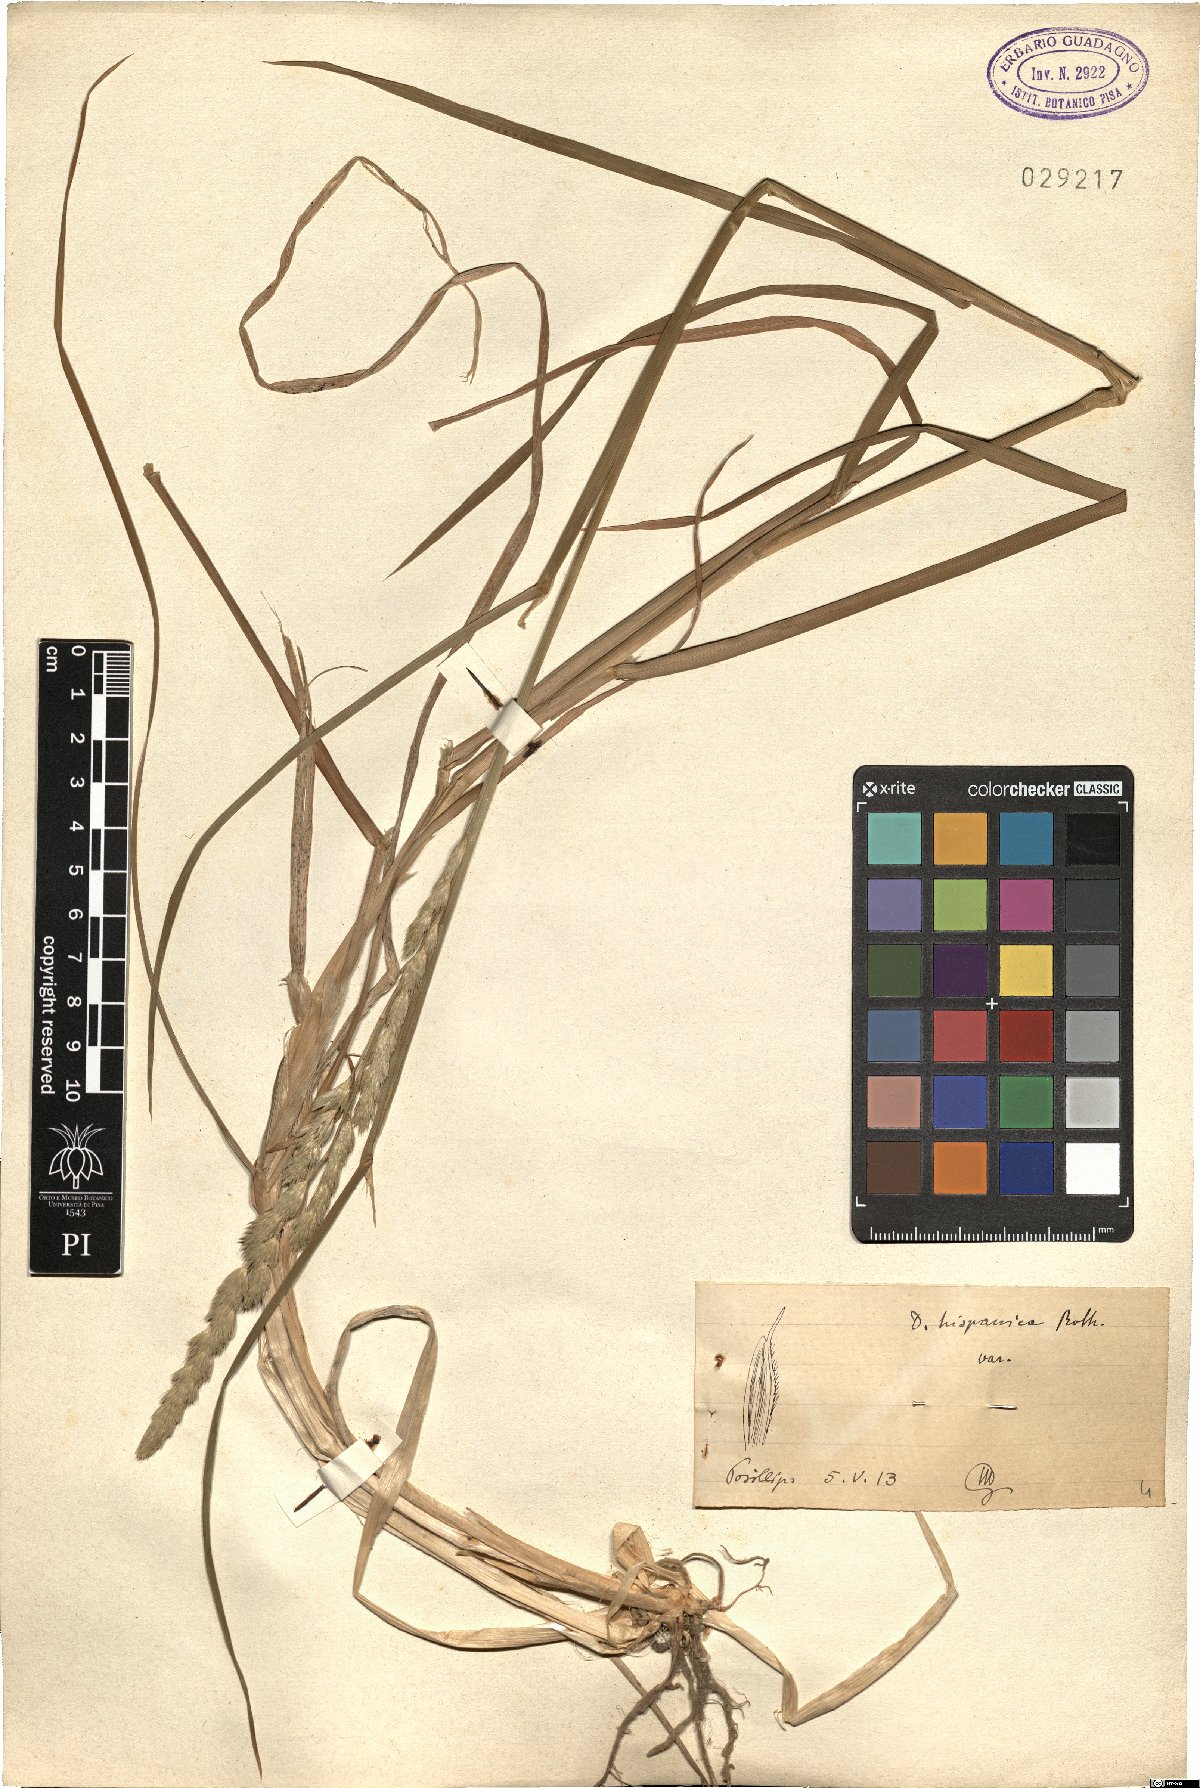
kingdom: Plantae
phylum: Tracheophyta
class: Liliopsida
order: Poales
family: Poaceae
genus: Dactylis
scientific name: Dactylis glomerata
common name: Orchardgrass
